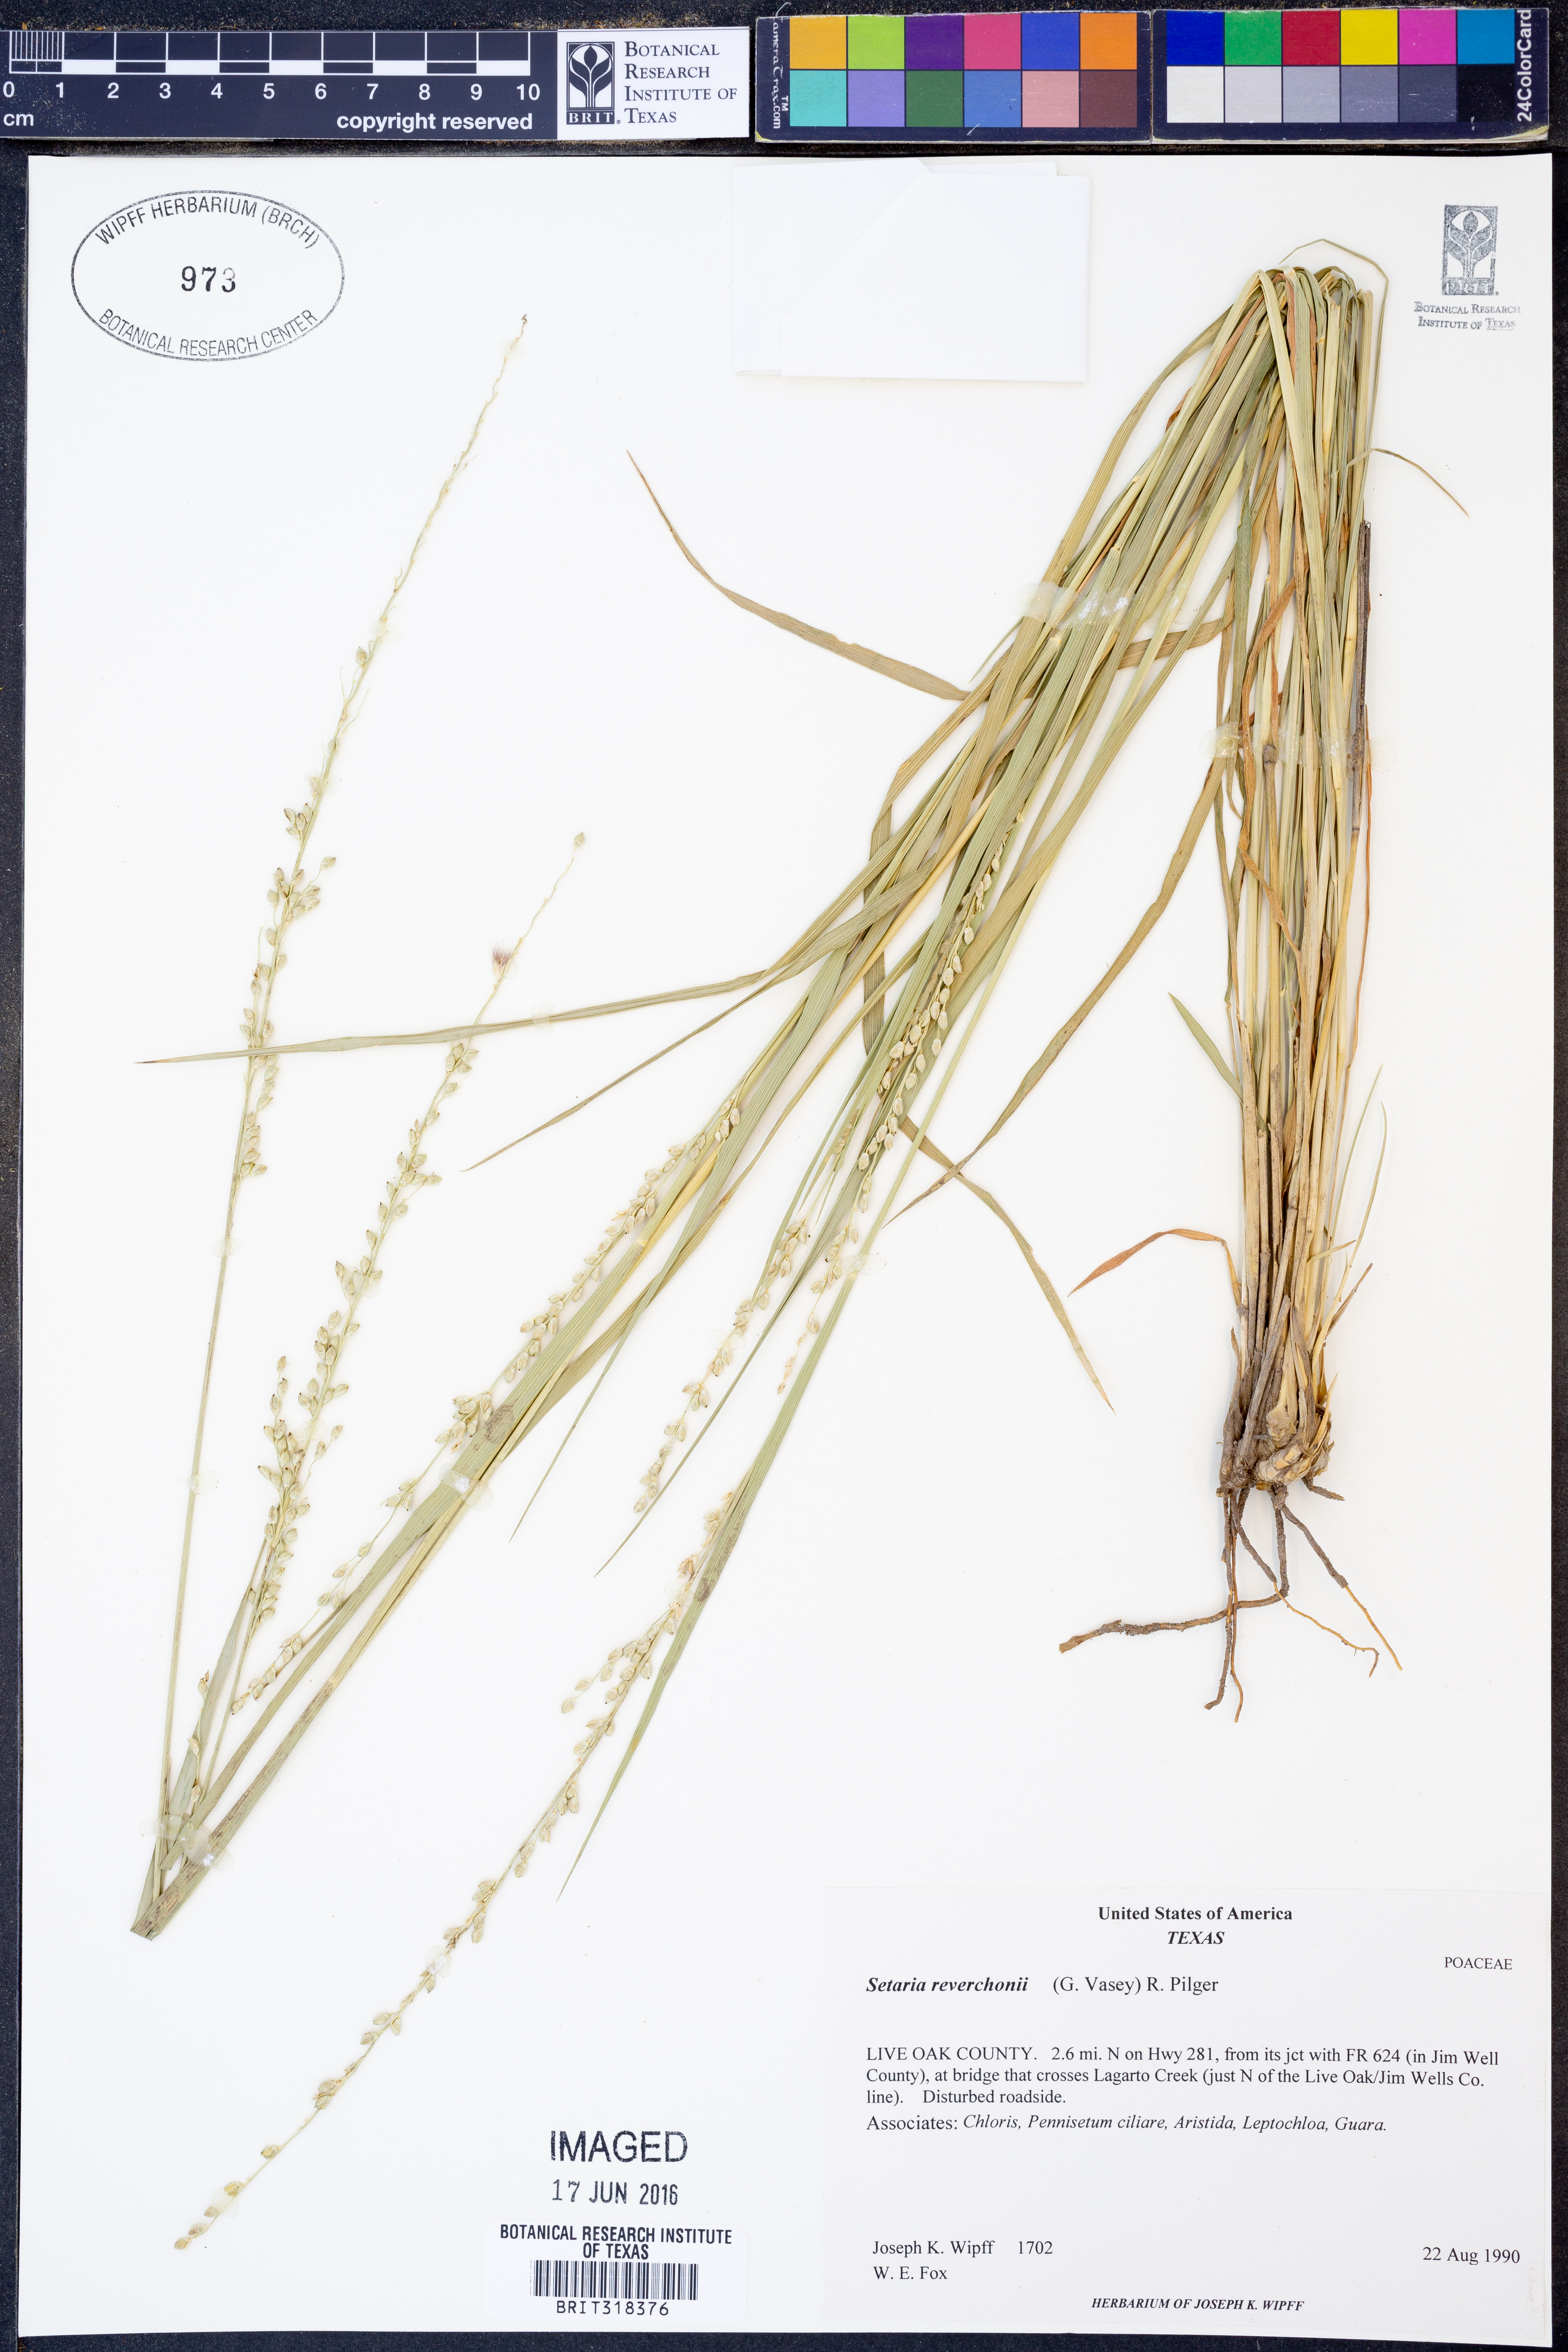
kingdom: Plantae
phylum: Tracheophyta
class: Liliopsida
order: Poales
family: Poaceae
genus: Setaria
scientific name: Setaria reverchonii
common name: Reverchon's bristle grass
